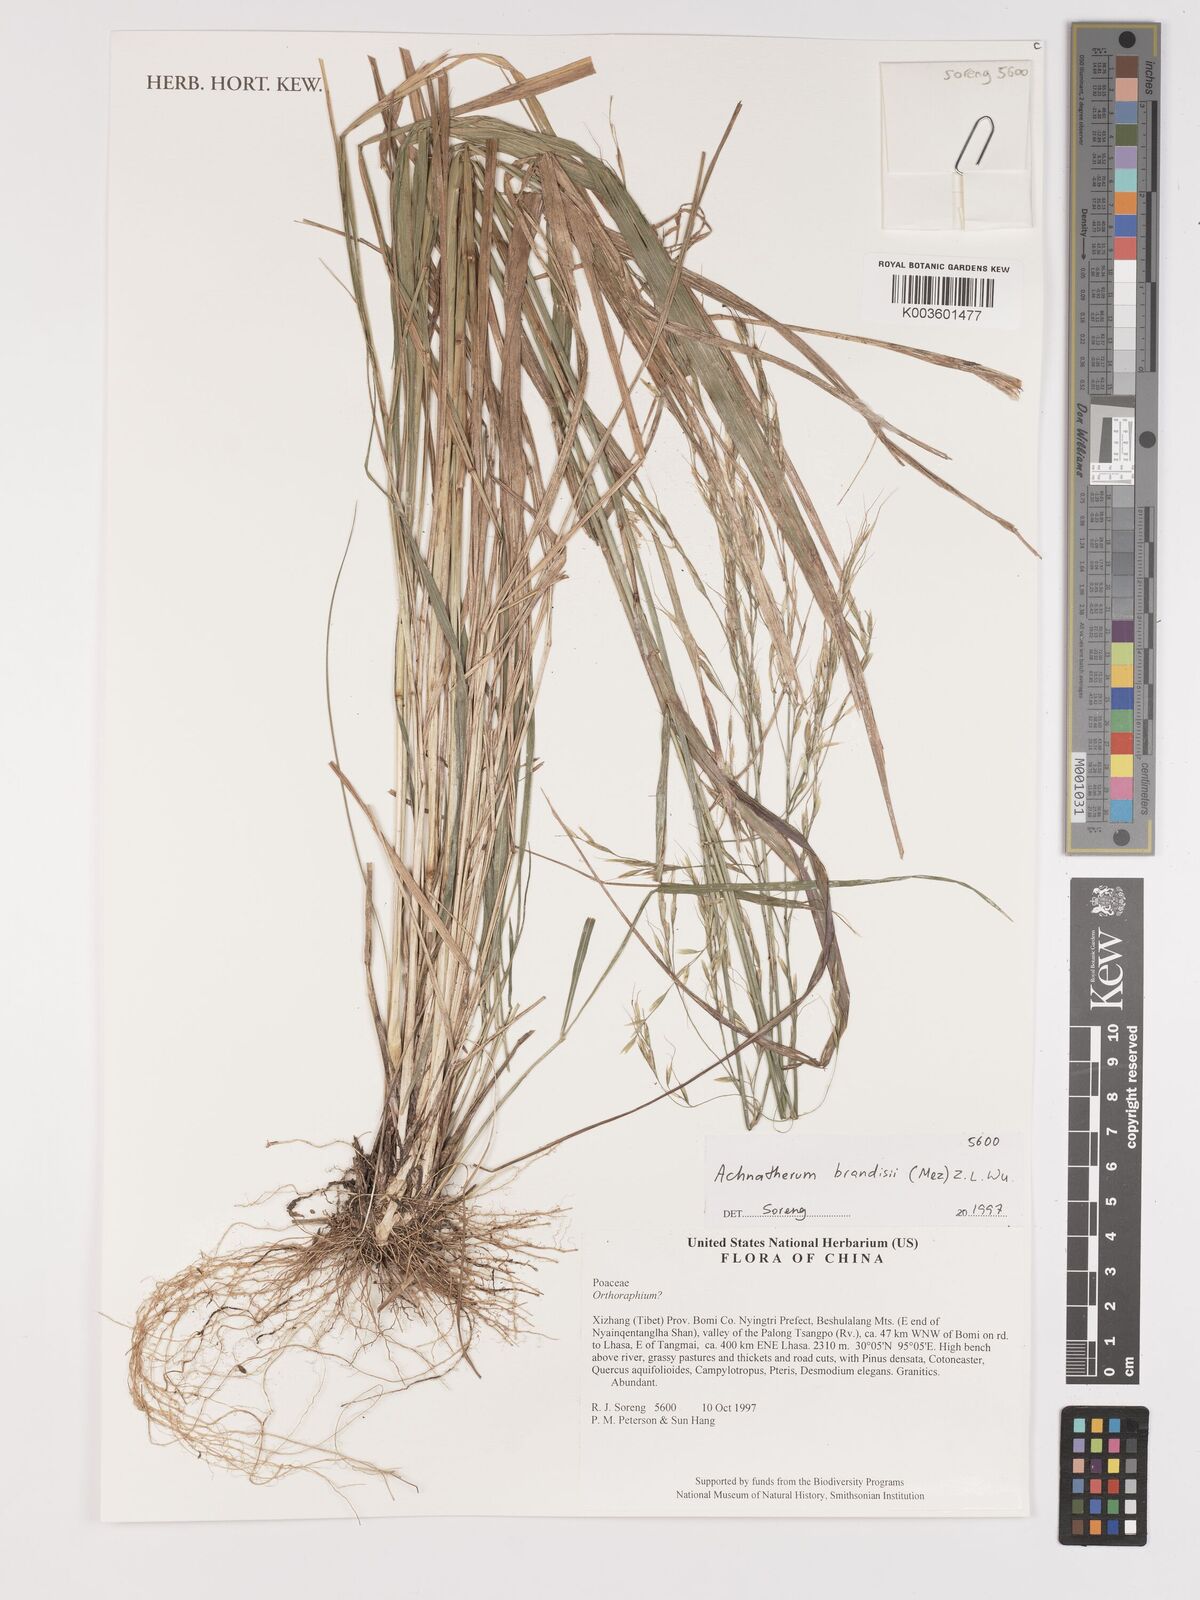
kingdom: Plantae
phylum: Tracheophyta
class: Liliopsida
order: Poales
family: Poaceae
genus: Achnatherum
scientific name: Achnatherum brandisii
